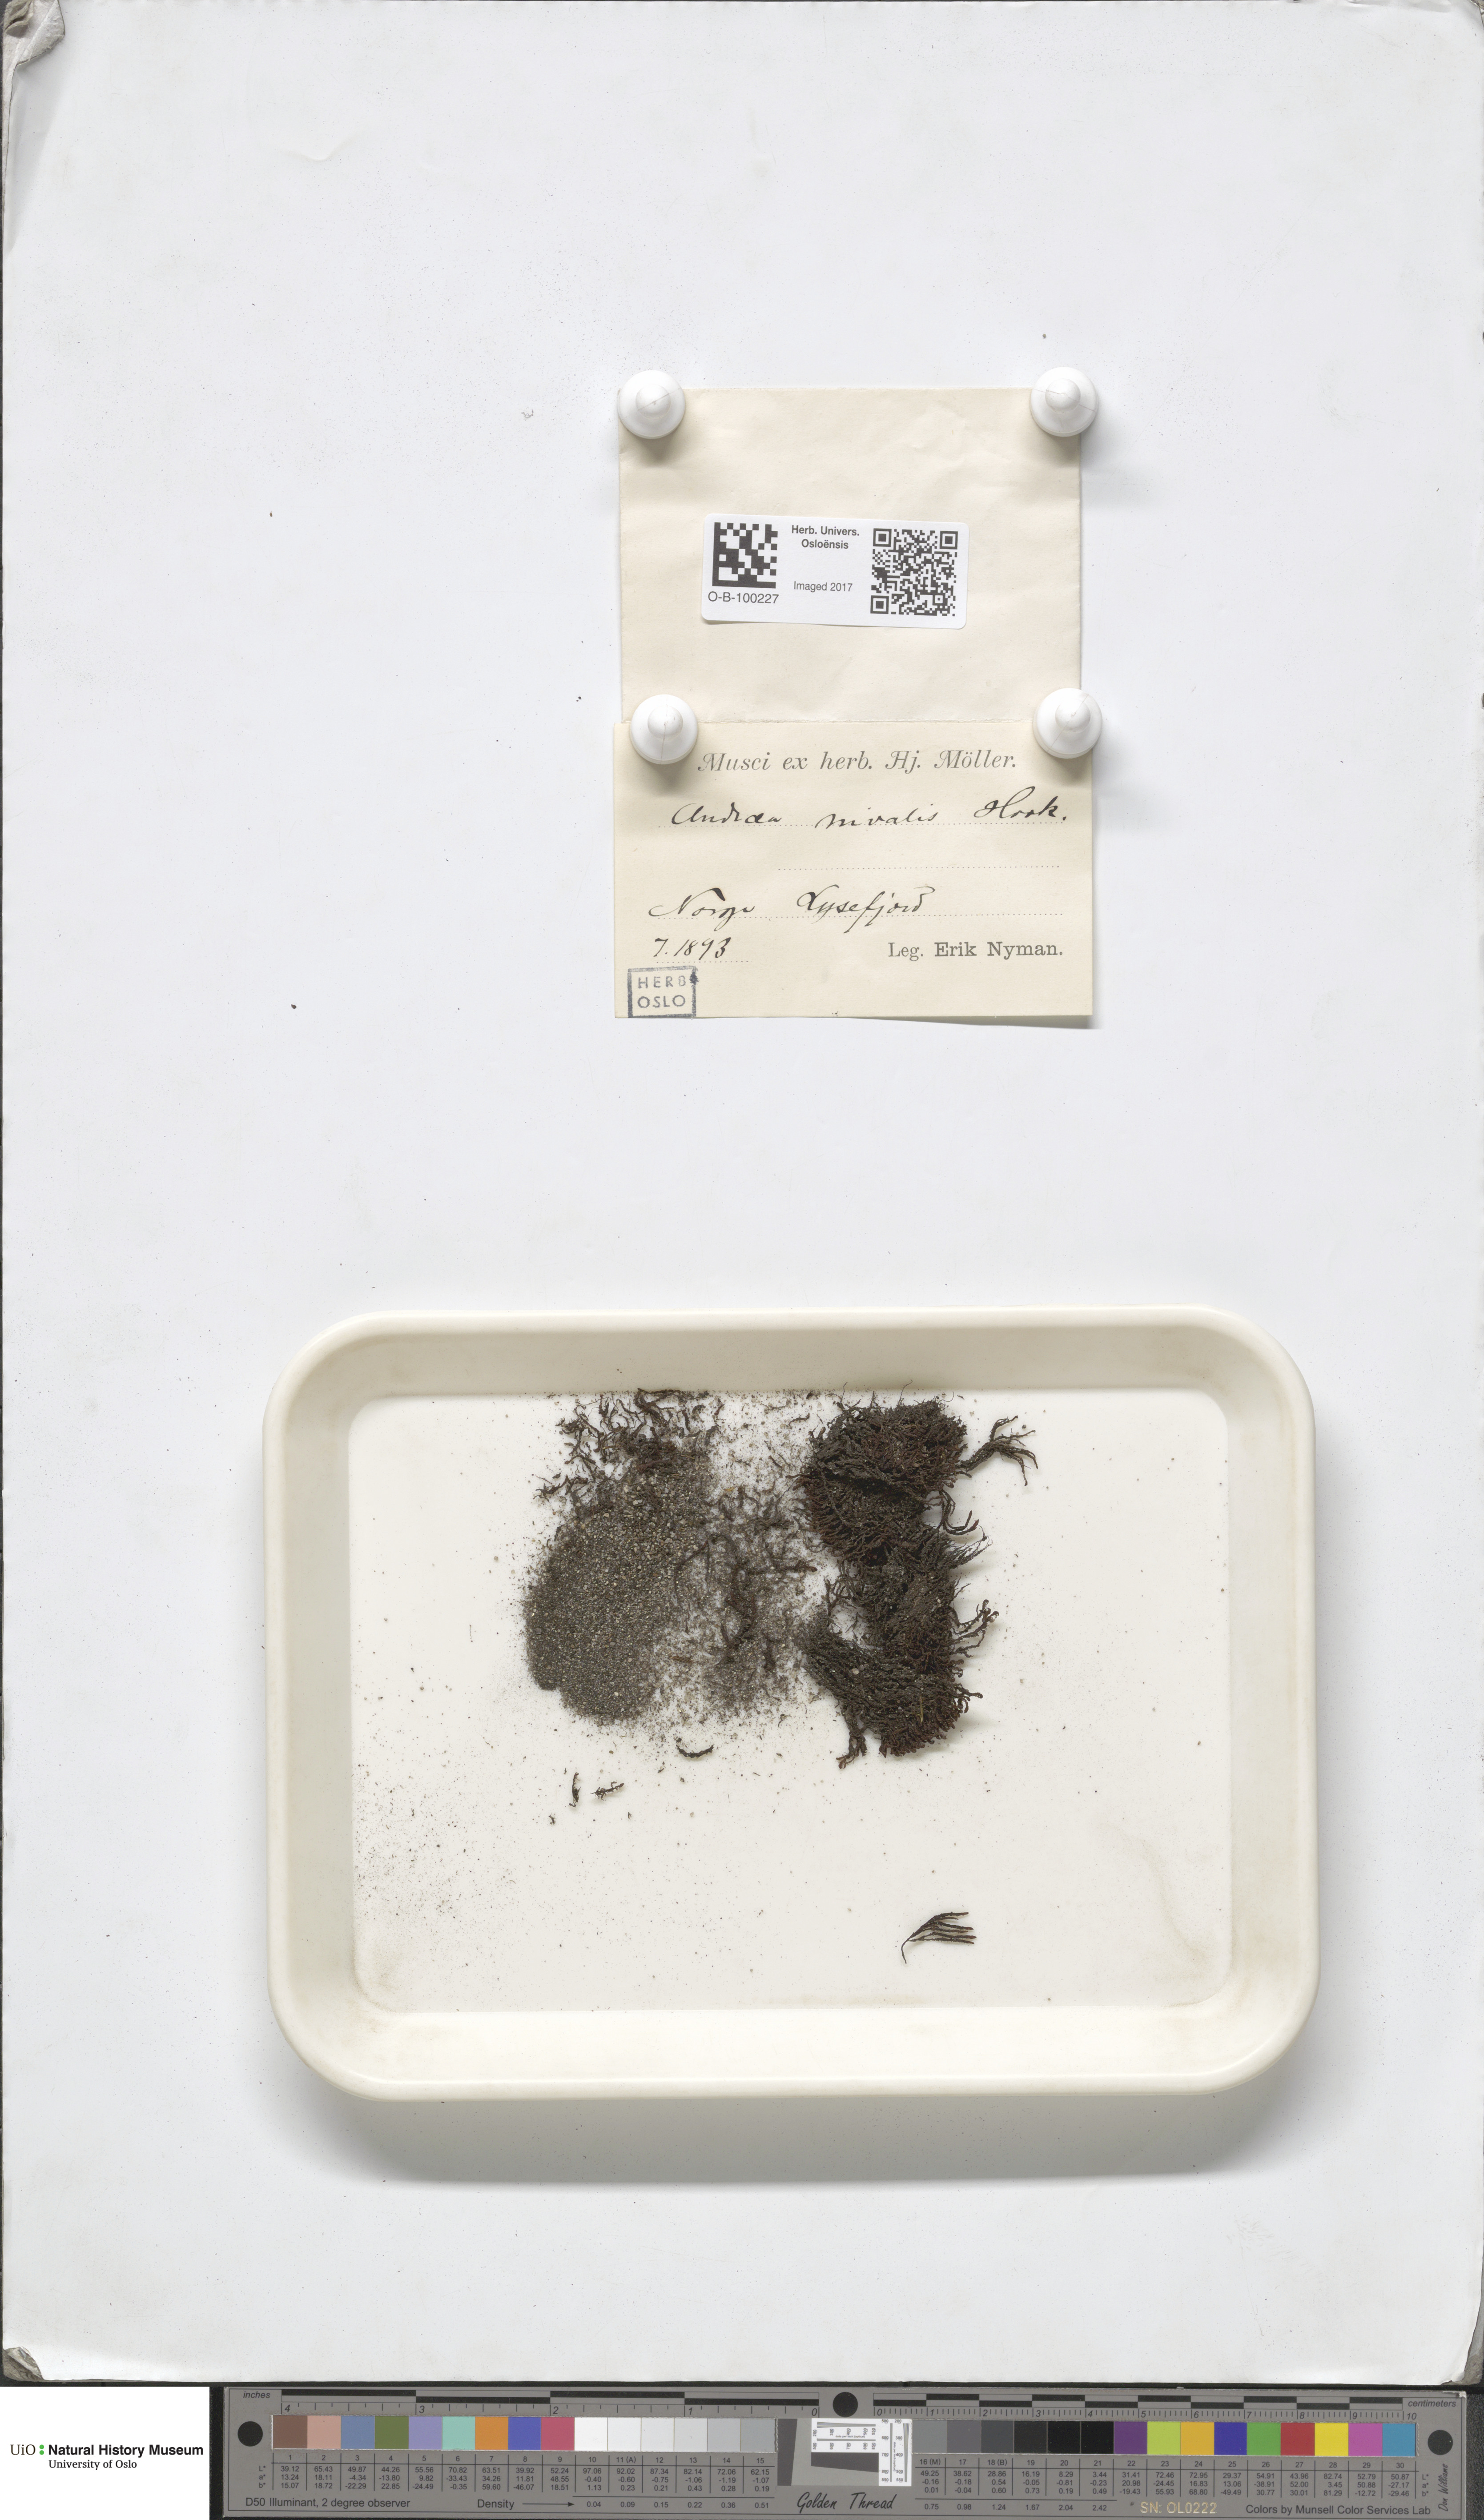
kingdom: Plantae
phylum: Bryophyta
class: Andreaeopsida
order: Andreaeales
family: Andreaeaceae
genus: Andreaea
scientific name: Andreaea nivalis
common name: Snow rock moss
